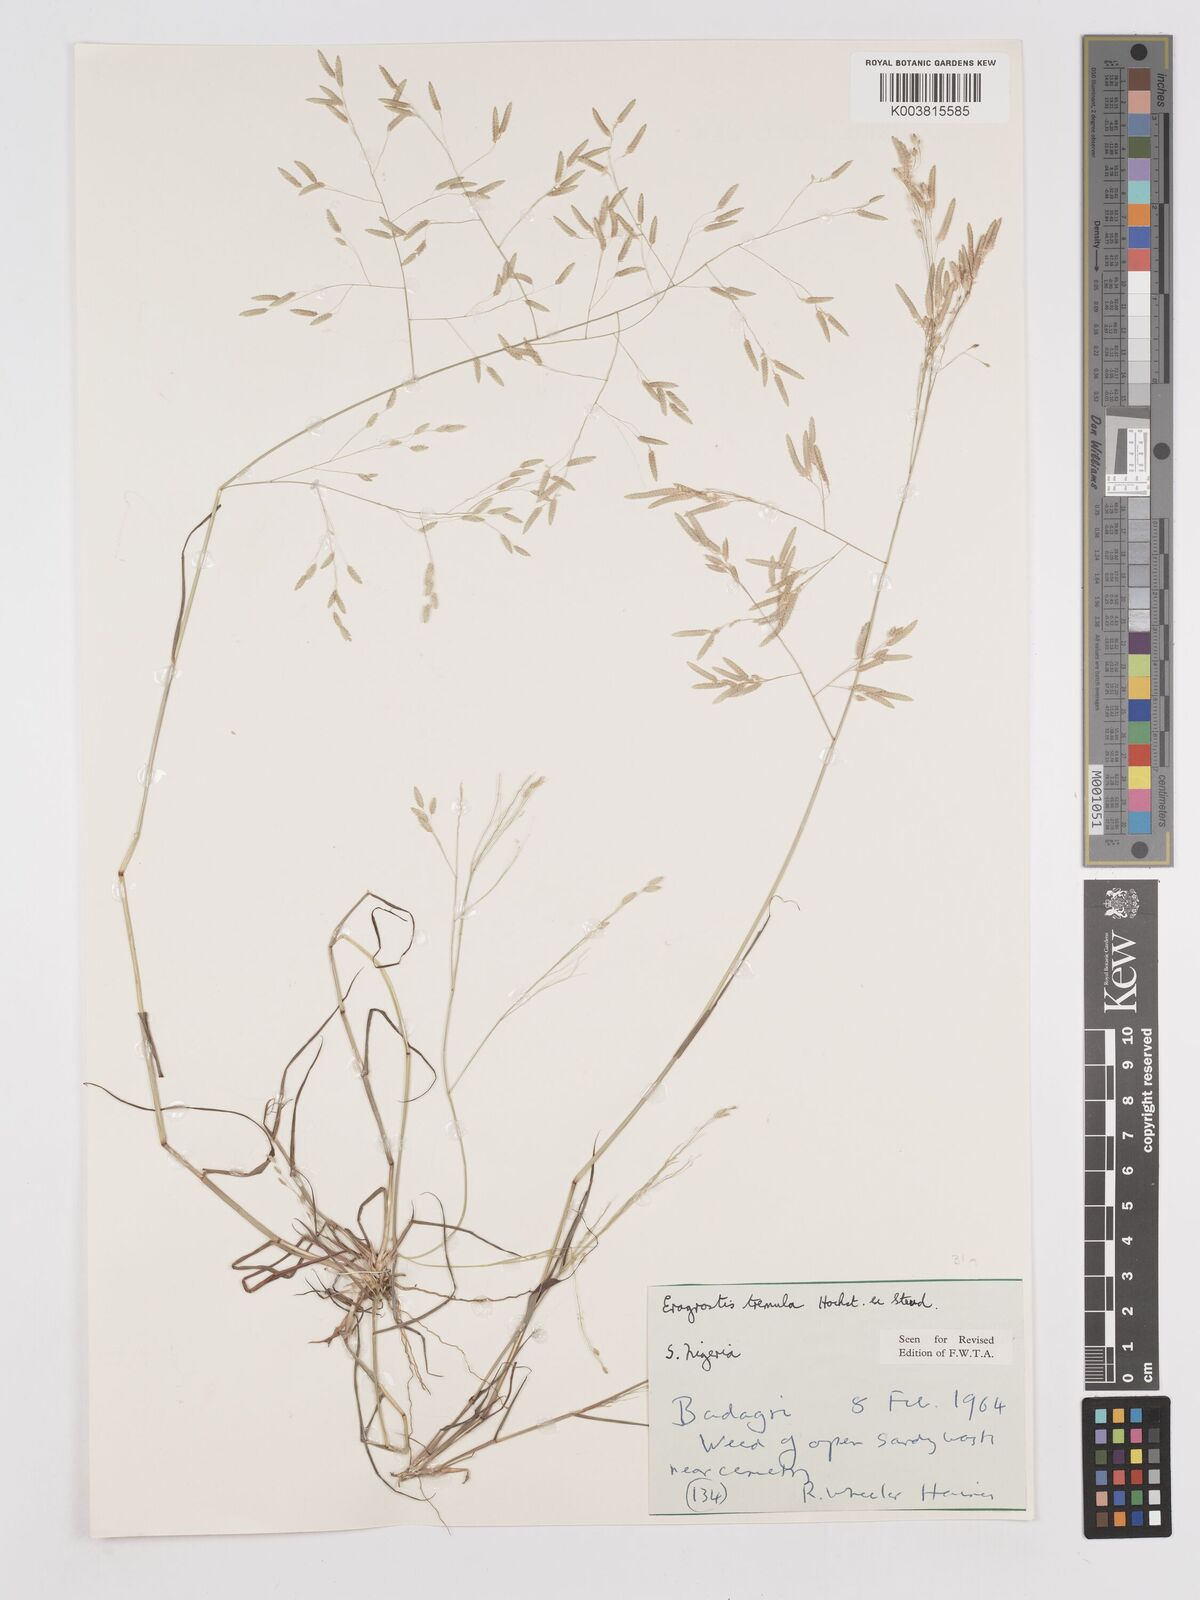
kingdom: Plantae
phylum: Tracheophyta
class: Liliopsida
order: Poales
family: Poaceae
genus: Eragrostis
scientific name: Eragrostis tremula
